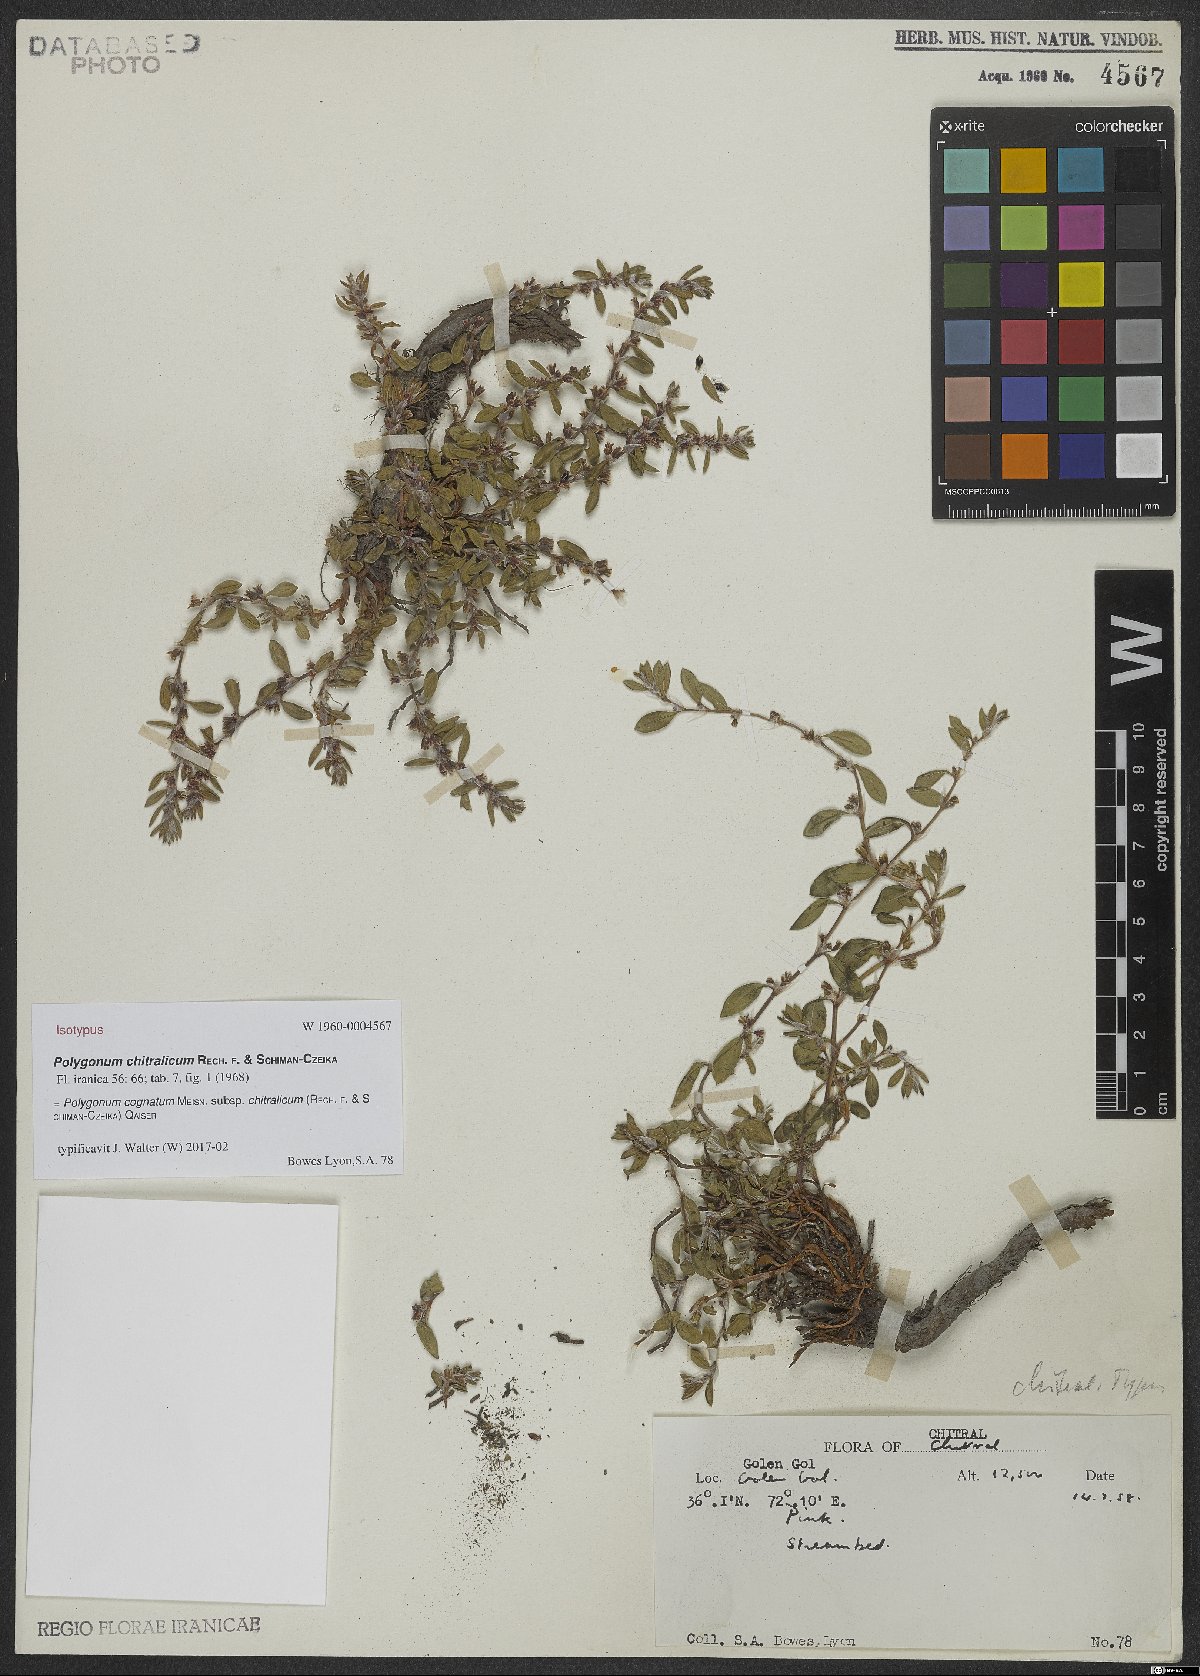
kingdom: Plantae
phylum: Tracheophyta
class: Magnoliopsida
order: Caryophyllales
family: Polygonaceae
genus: Polygonum
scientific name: Polygonum cognatum
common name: Indian knotgrass
